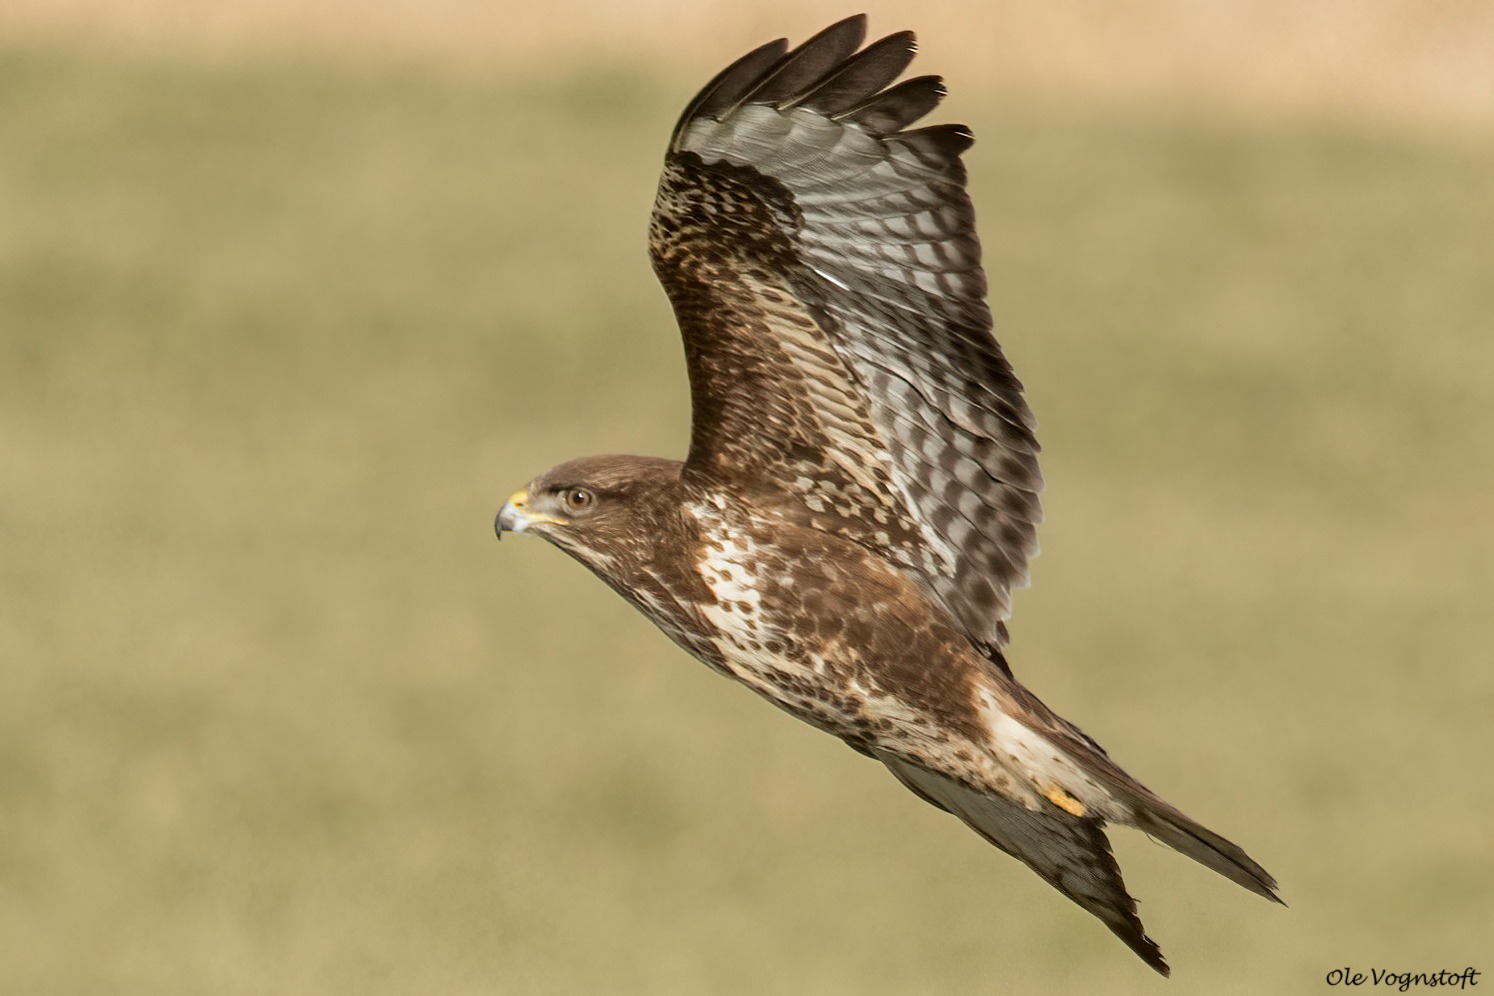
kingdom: Animalia
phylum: Chordata
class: Aves
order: Accipitriformes
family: Accipitridae
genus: Buteo
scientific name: Buteo buteo
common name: Musvåge
